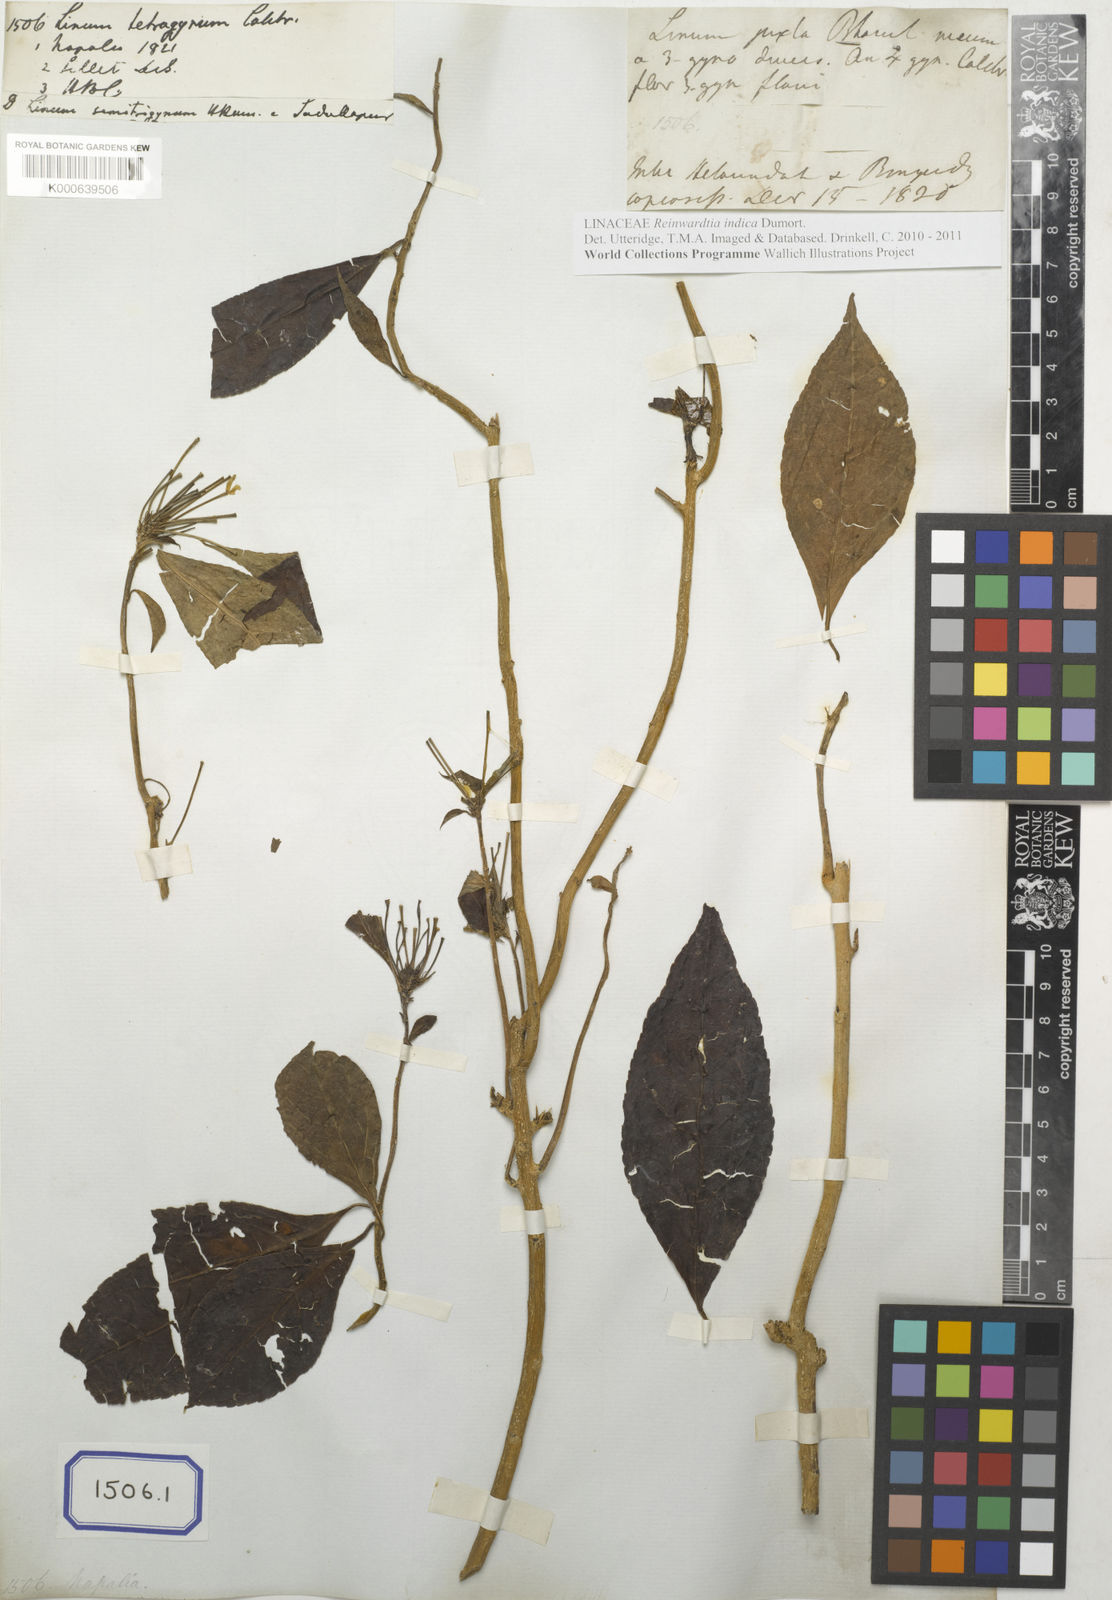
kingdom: Plantae
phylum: Tracheophyta
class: Magnoliopsida
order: Malpighiales
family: Linaceae
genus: Linum
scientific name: Linum
